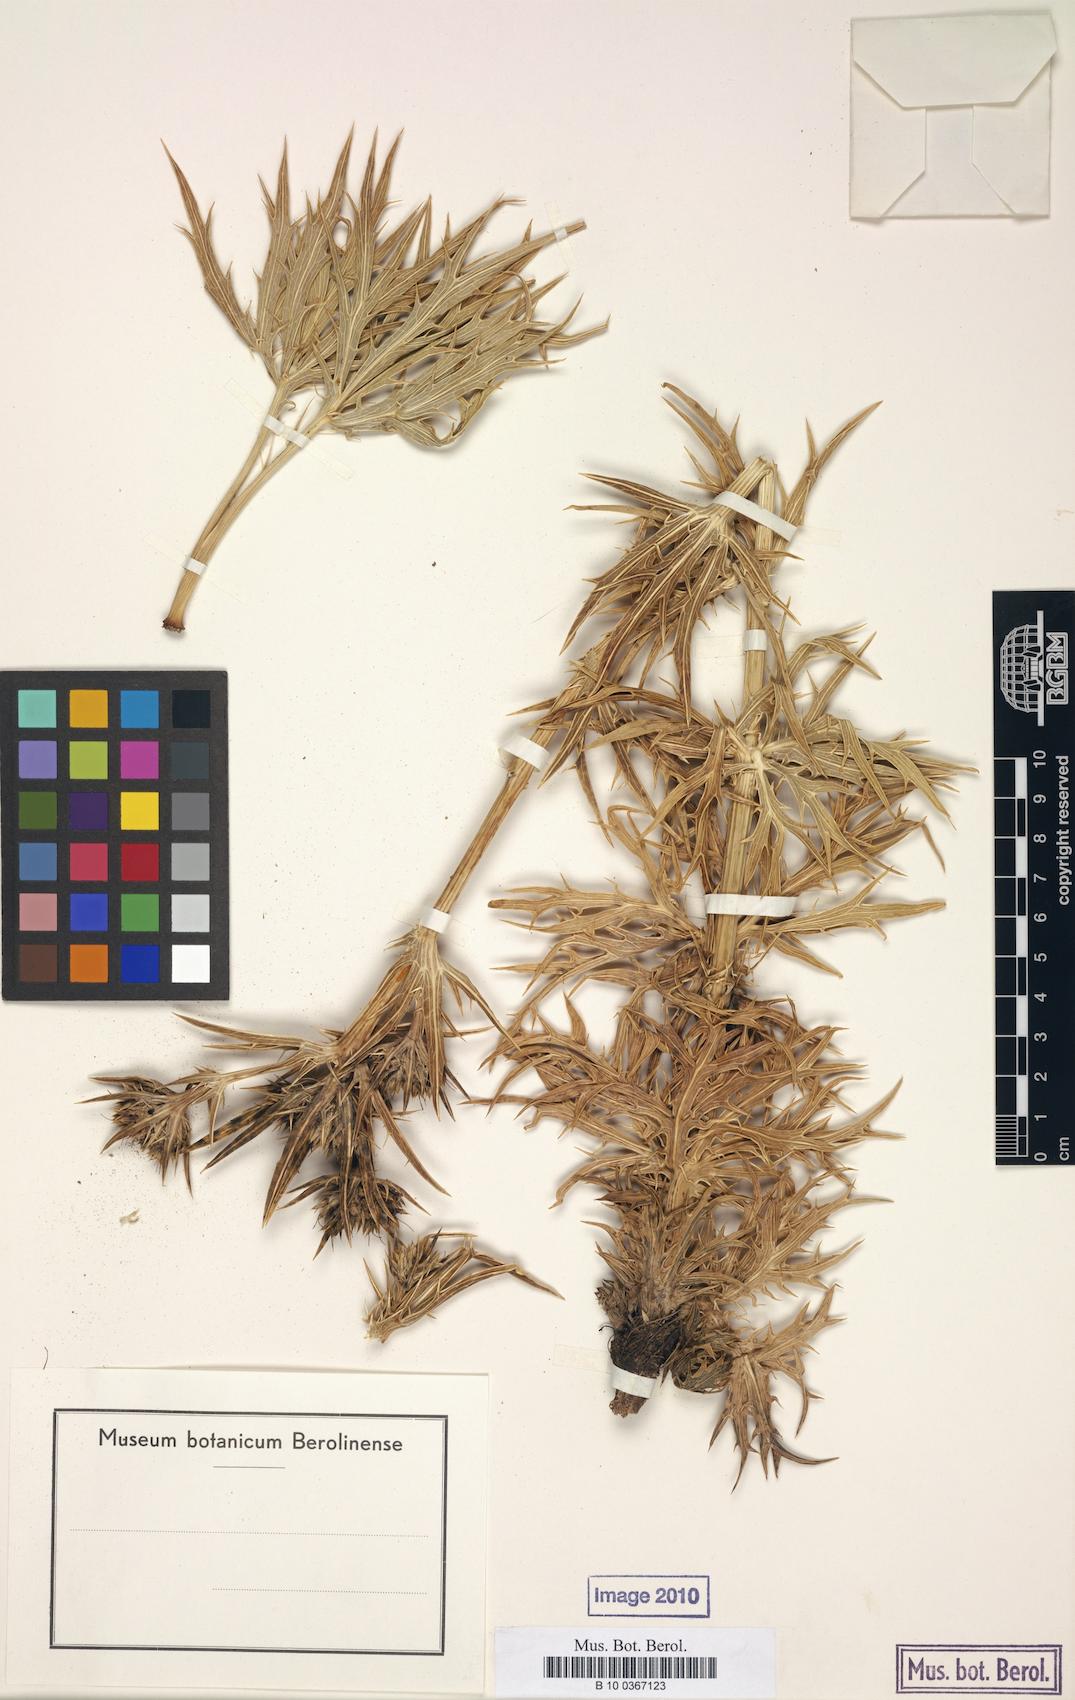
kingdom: Plantae
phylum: Tracheophyta
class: Magnoliopsida
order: Apiales
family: Apiaceae
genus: Eryngium
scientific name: Eryngium kotschyi
